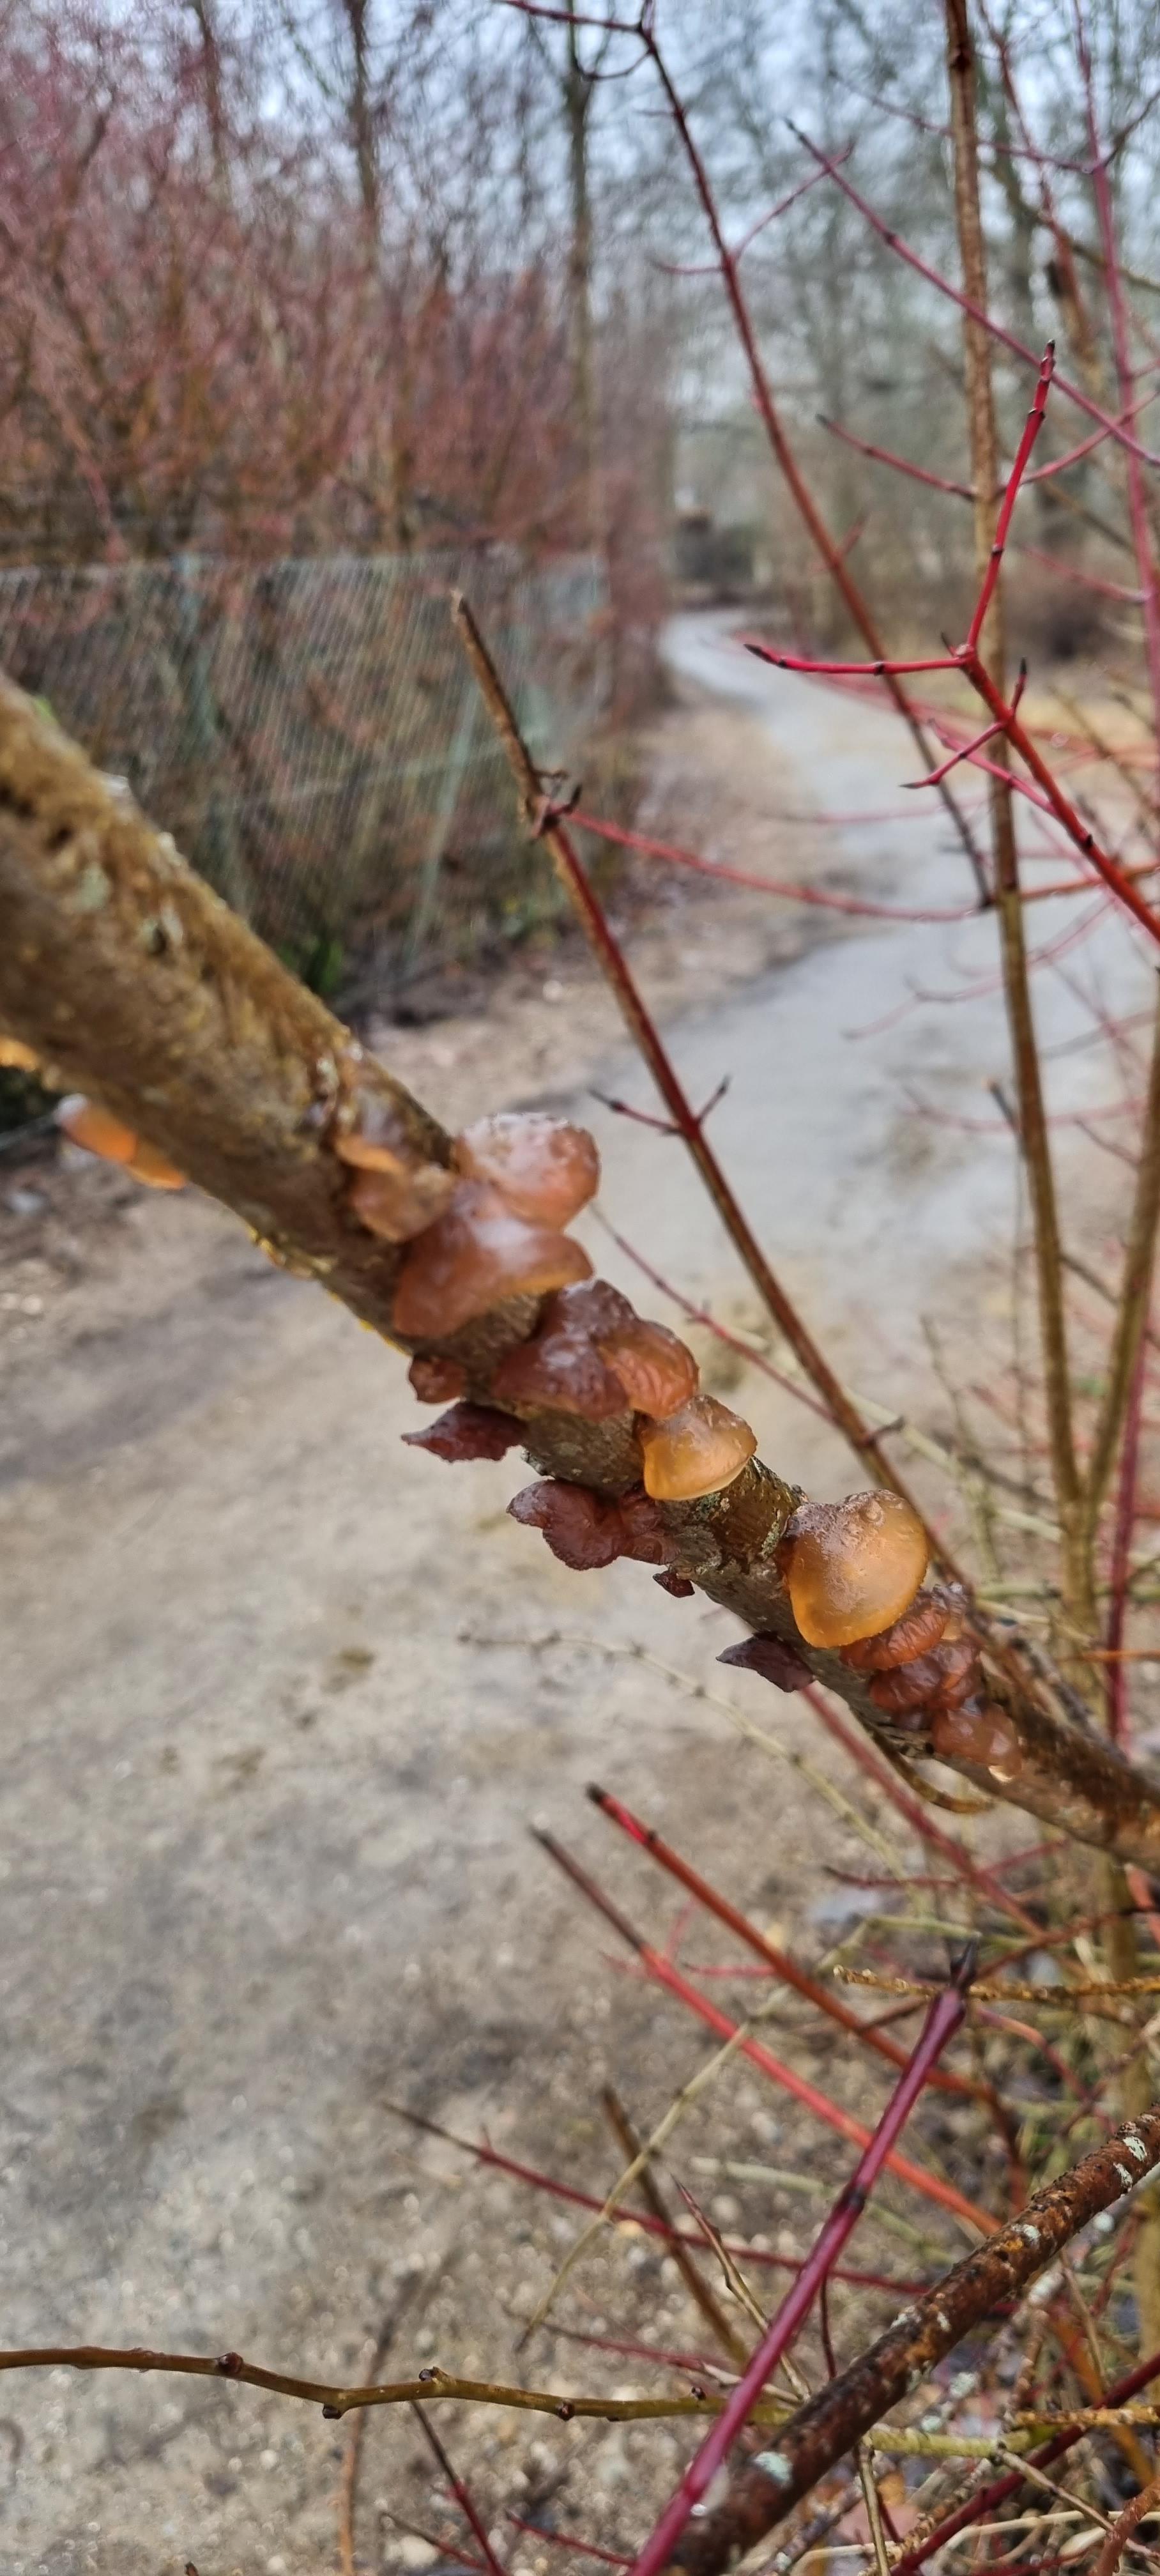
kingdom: Fungi
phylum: Basidiomycota
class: Agaricomycetes
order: Auriculariales
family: Auriculariaceae
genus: Exidia
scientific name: Exidia recisa
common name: pile-bævretop
